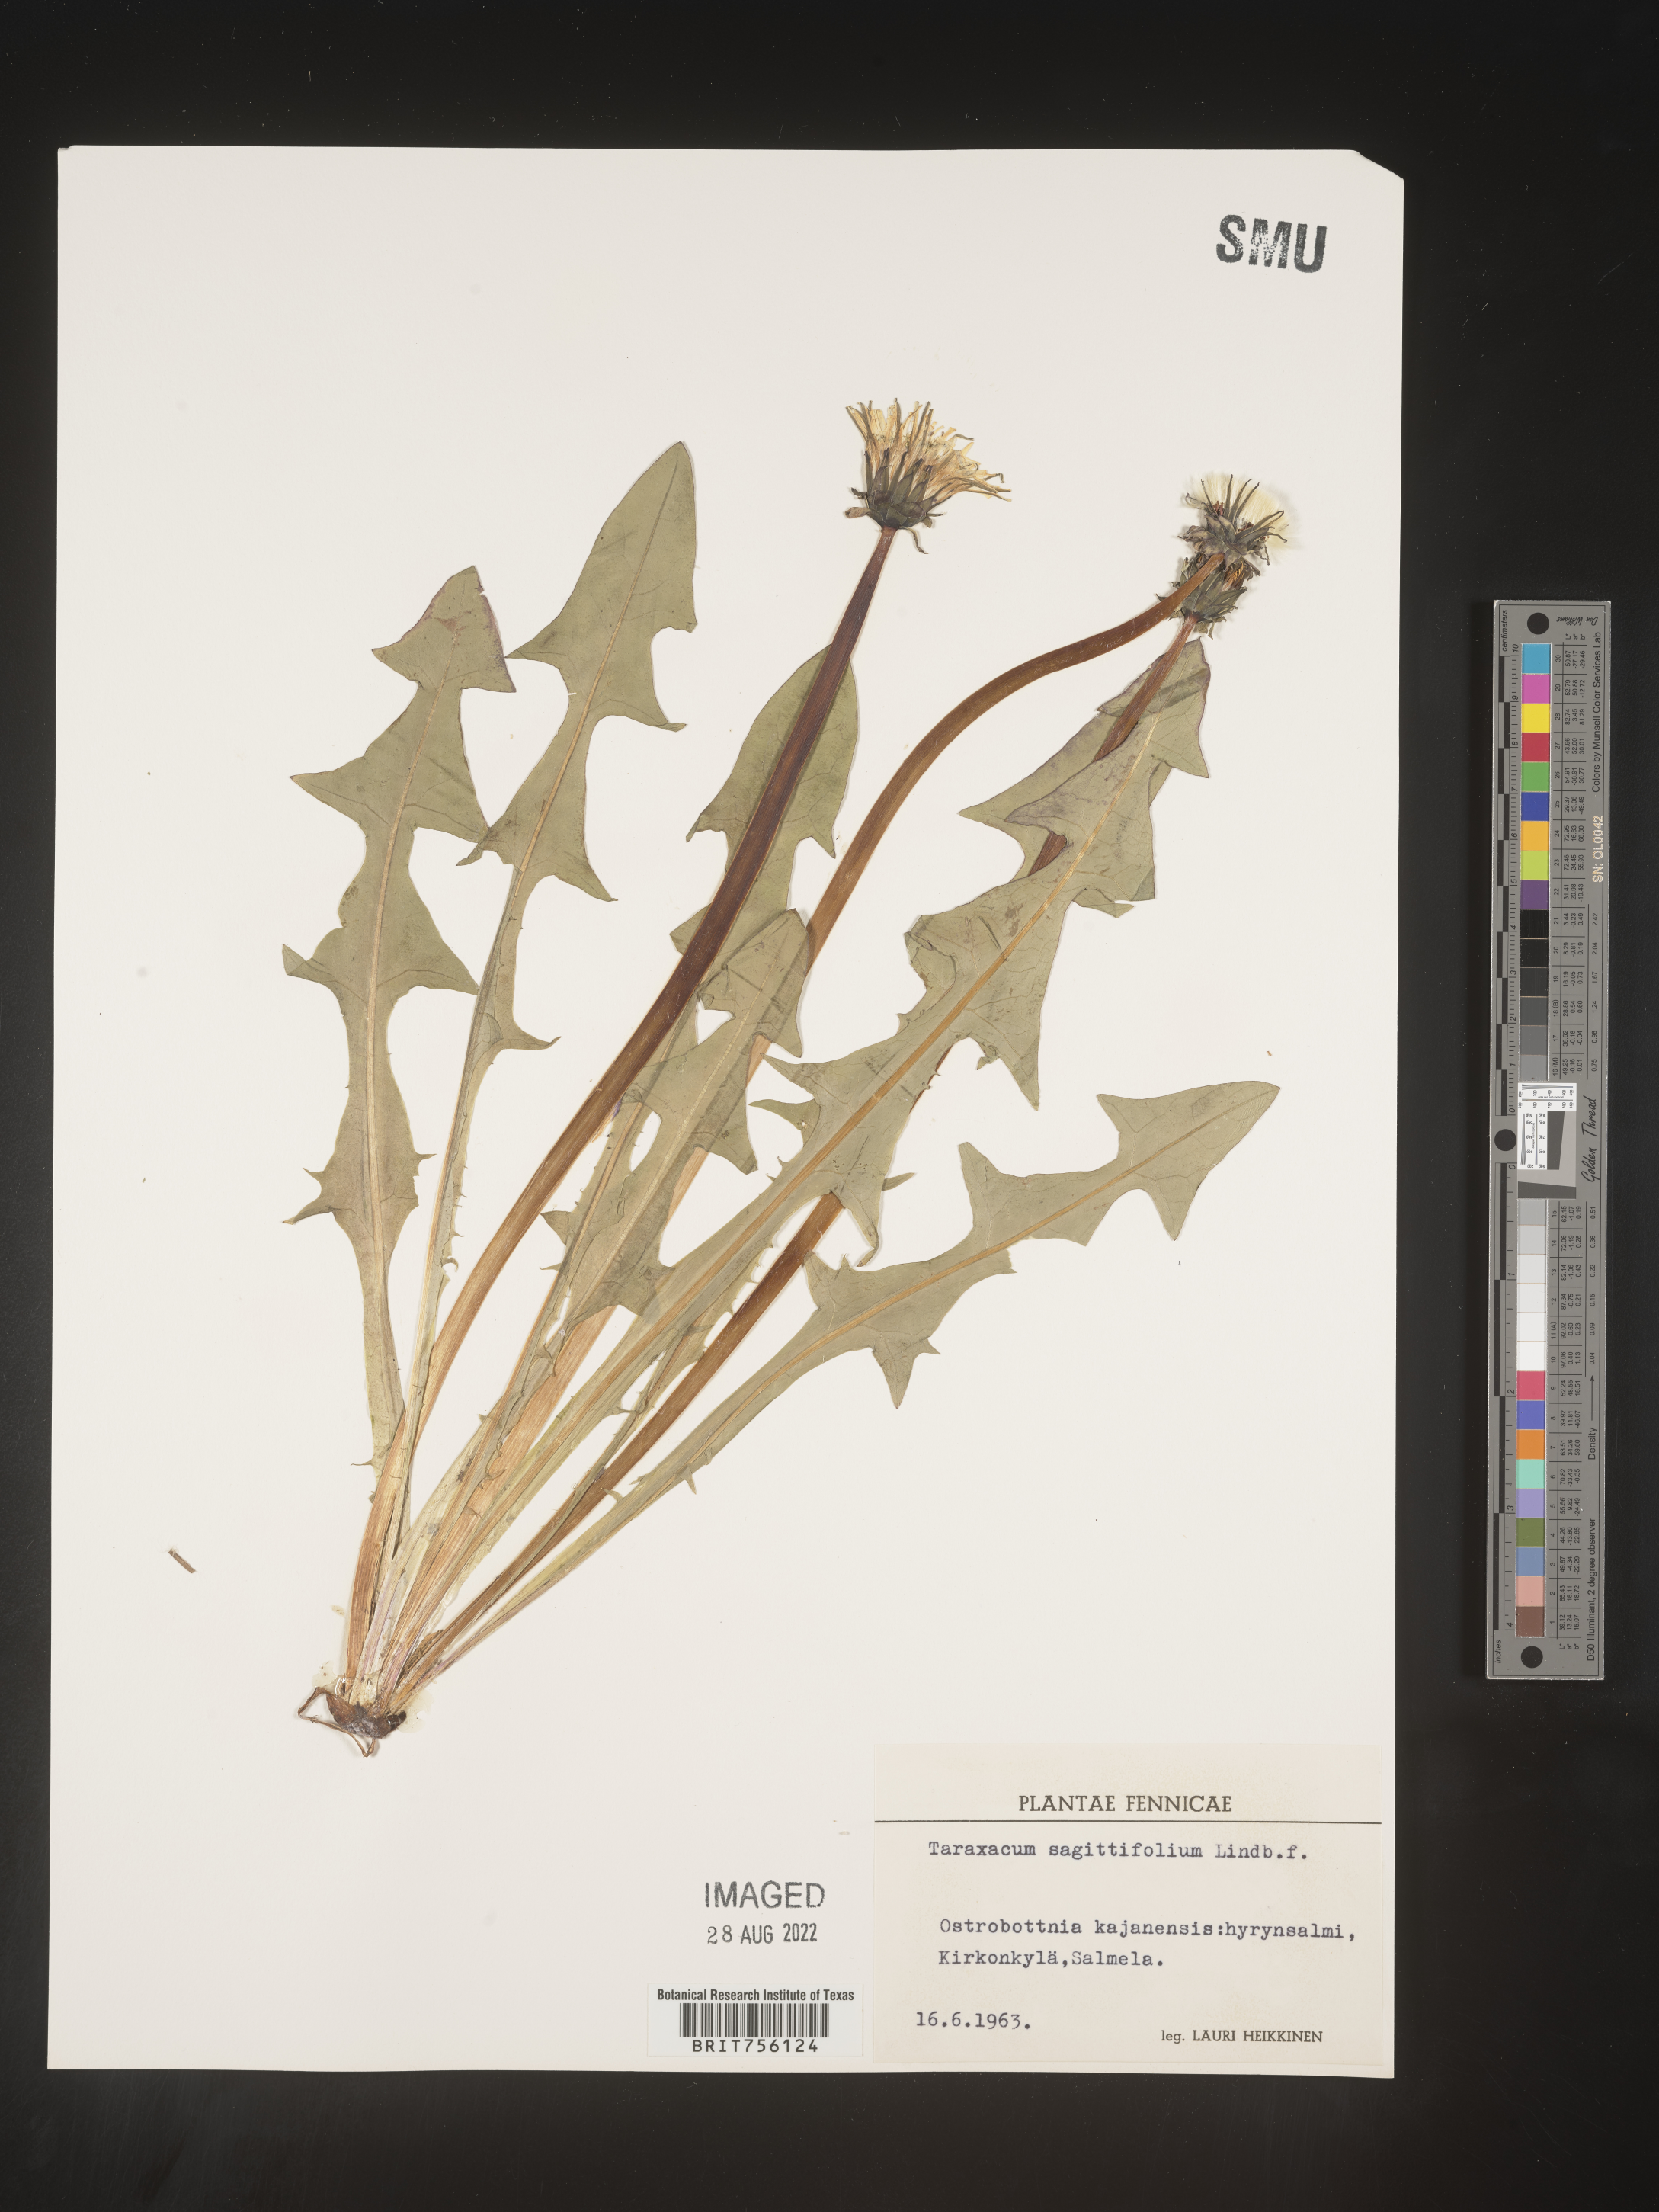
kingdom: Plantae
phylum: Tracheophyta
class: Magnoliopsida
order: Asterales
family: Asteraceae
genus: Taraxacum
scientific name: Taraxacum
